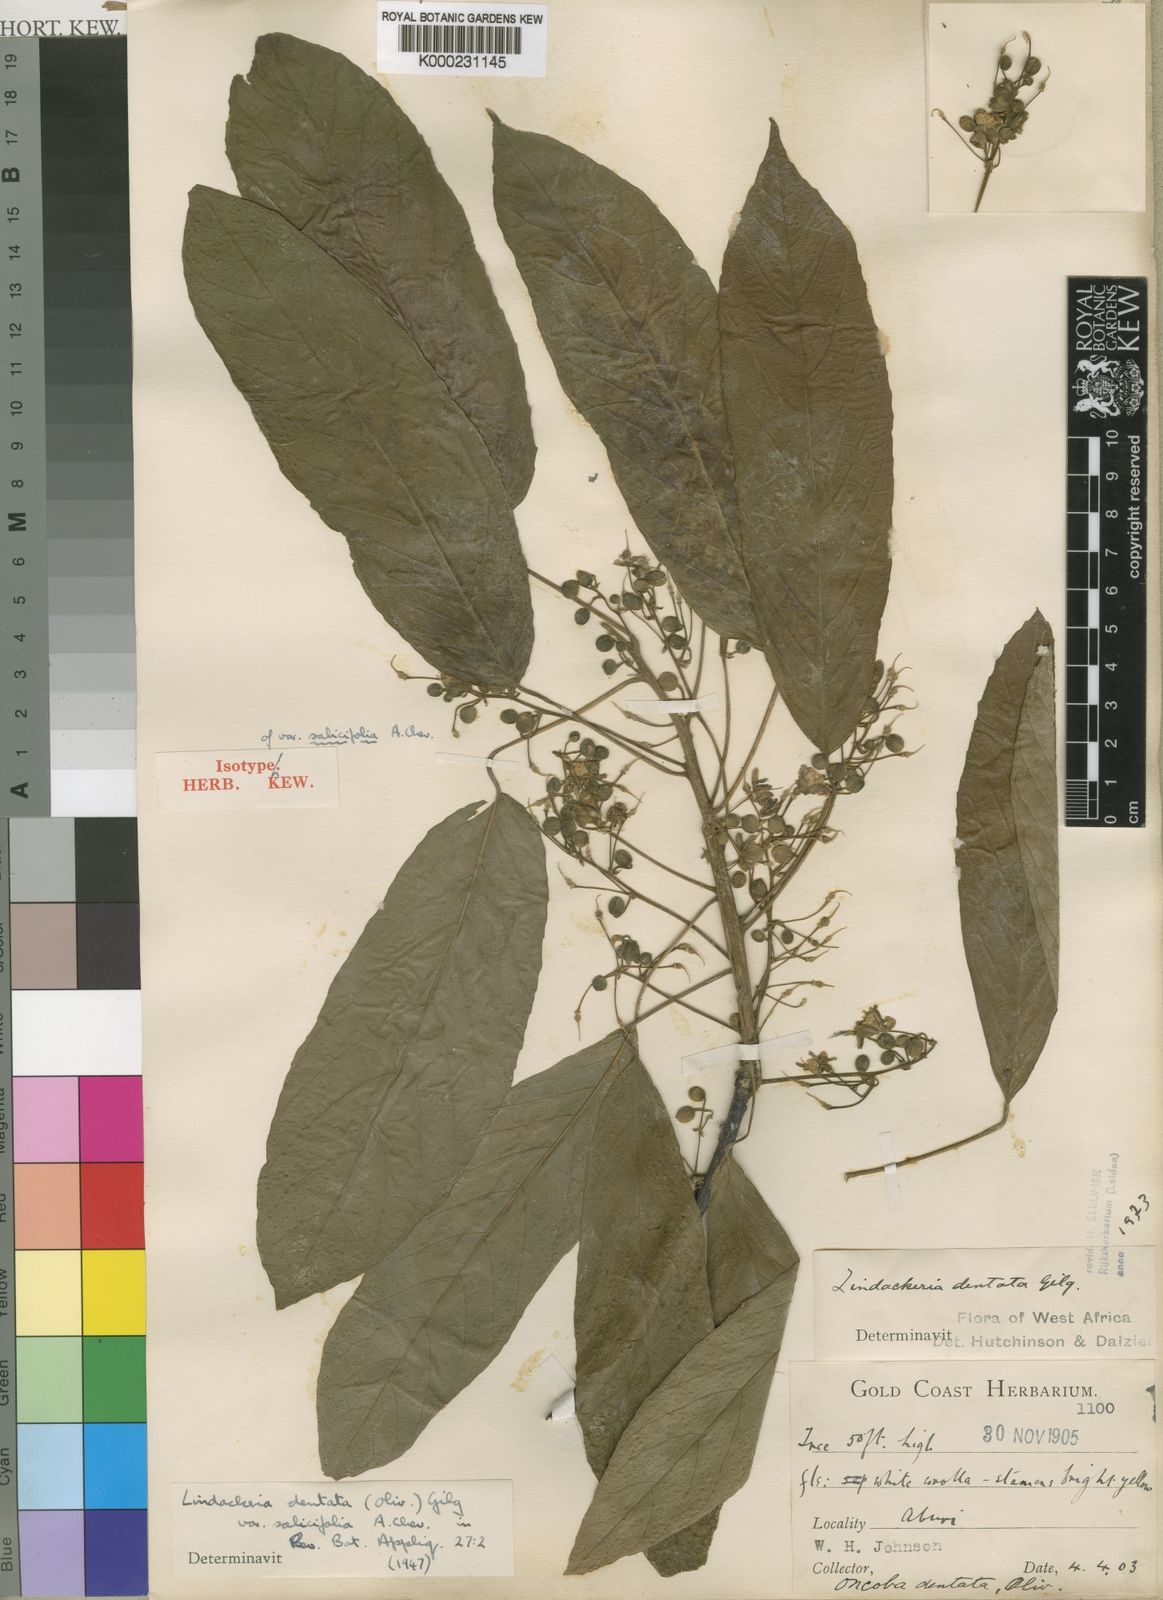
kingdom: Plantae
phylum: Tracheophyta
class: Magnoliopsida
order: Malpighiales
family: Achariaceae
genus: Lindackeria
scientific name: Lindackeria dentata
